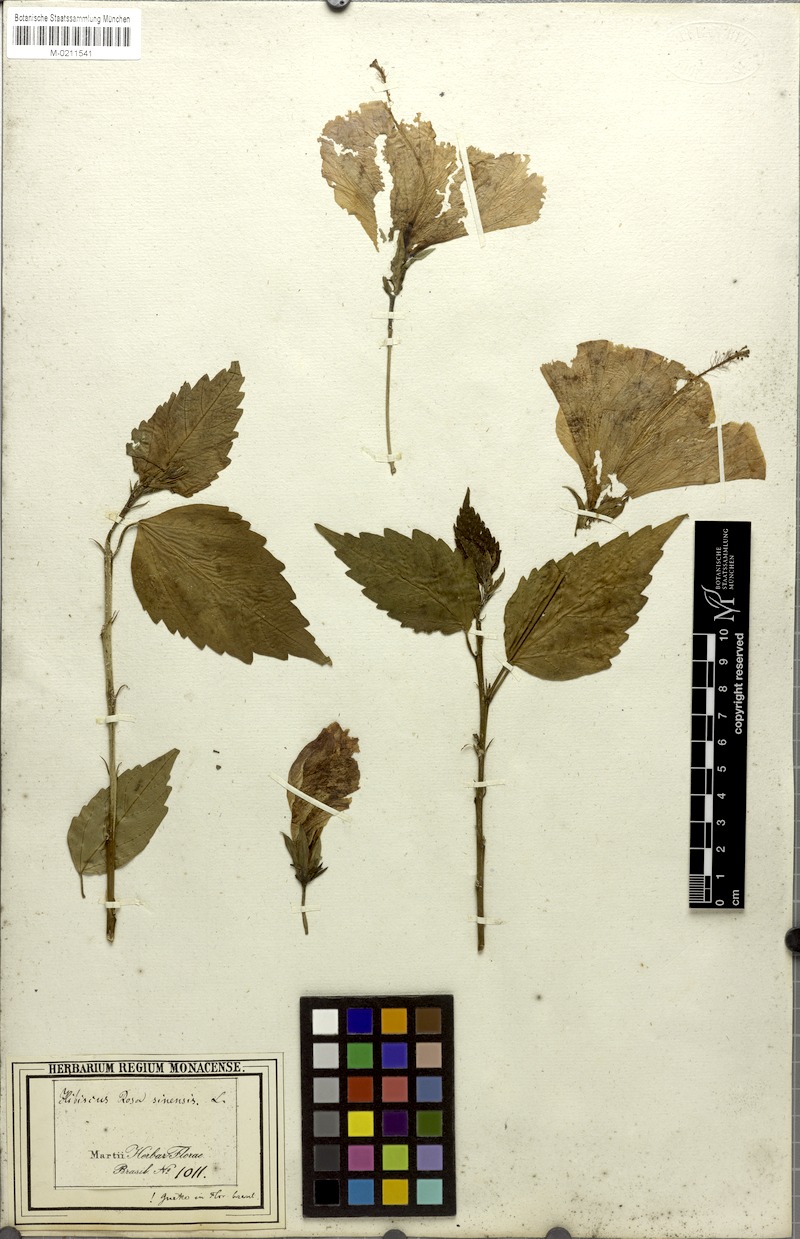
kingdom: Plantae
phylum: Tracheophyta
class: Magnoliopsida
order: Malvales
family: Malvaceae
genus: Hibiscus
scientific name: Hibiscus rosa-sinensis
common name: Hibiscus
